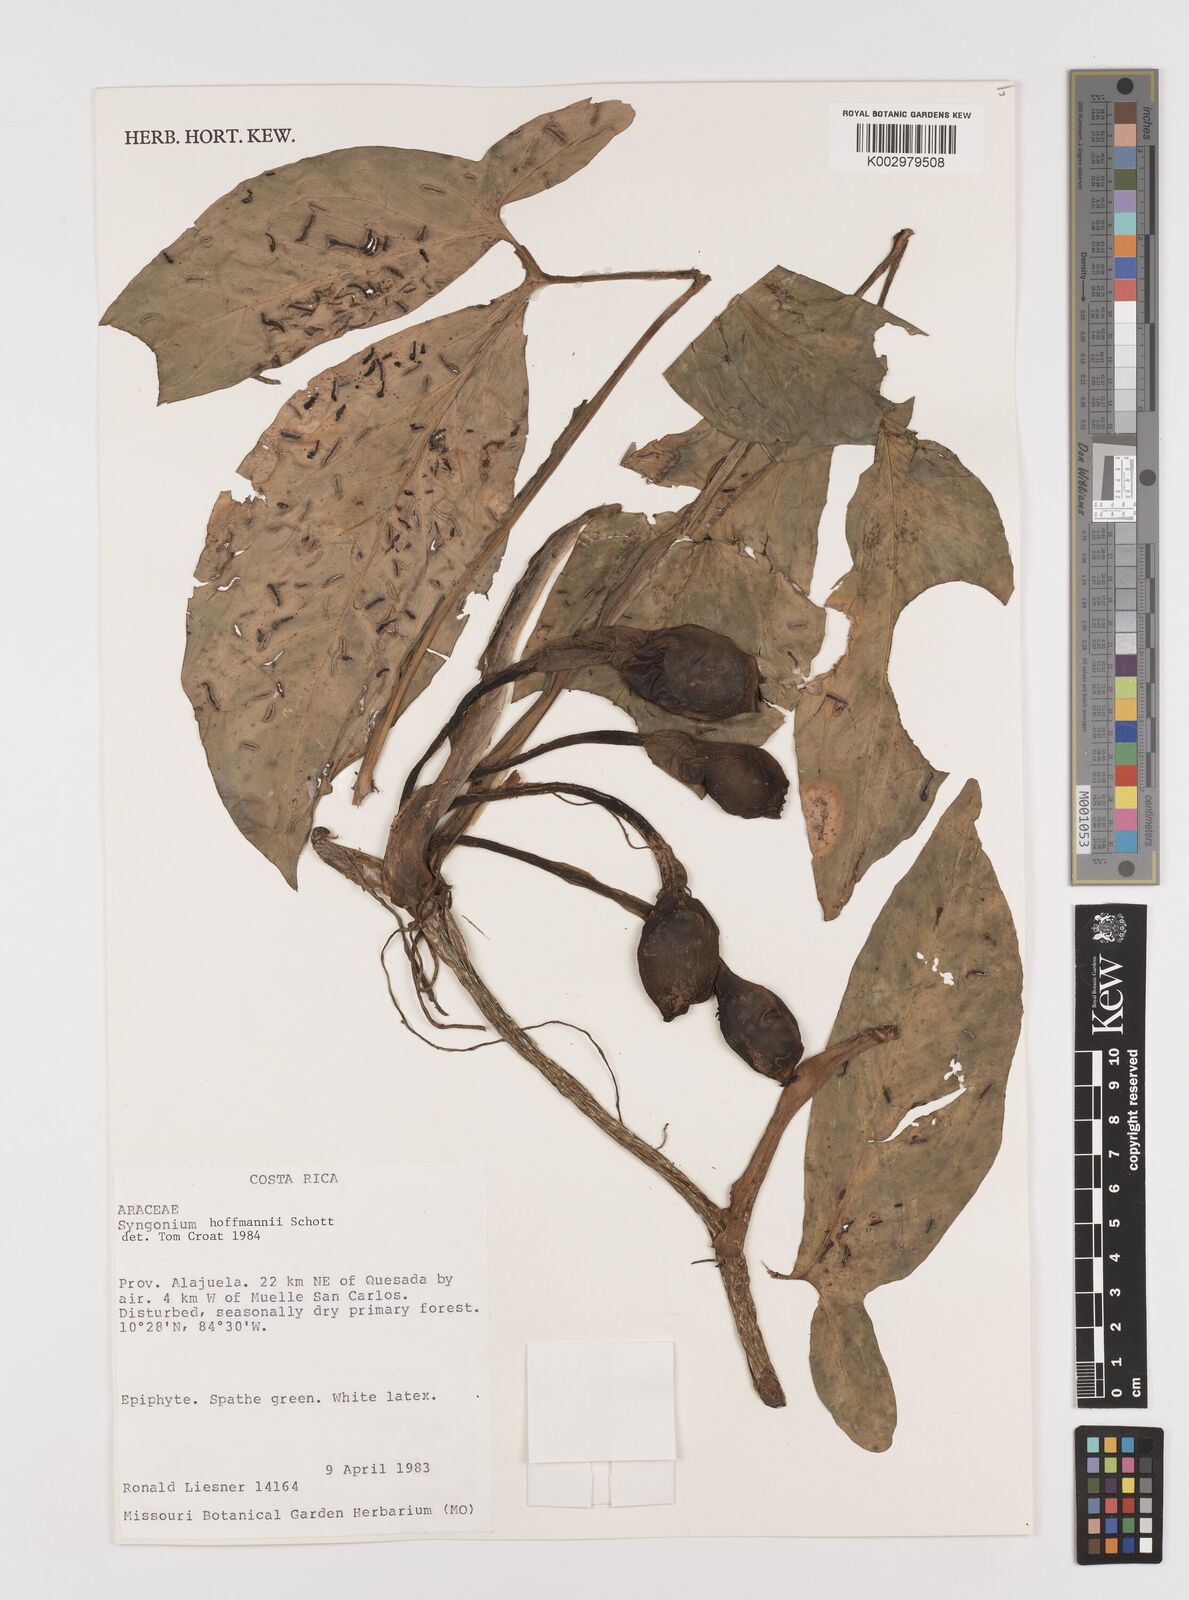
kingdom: Plantae
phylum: Tracheophyta
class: Liliopsida
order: Alismatales
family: Araceae
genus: Syngonium
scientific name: Syngonium hoffmannii
